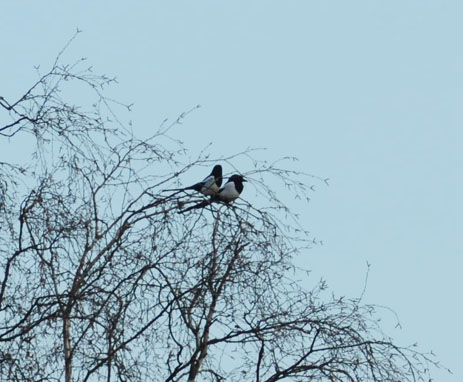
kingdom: Animalia
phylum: Chordata
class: Aves
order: Passeriformes
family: Corvidae
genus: Pica
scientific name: Pica pica
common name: Eurasian magpie
